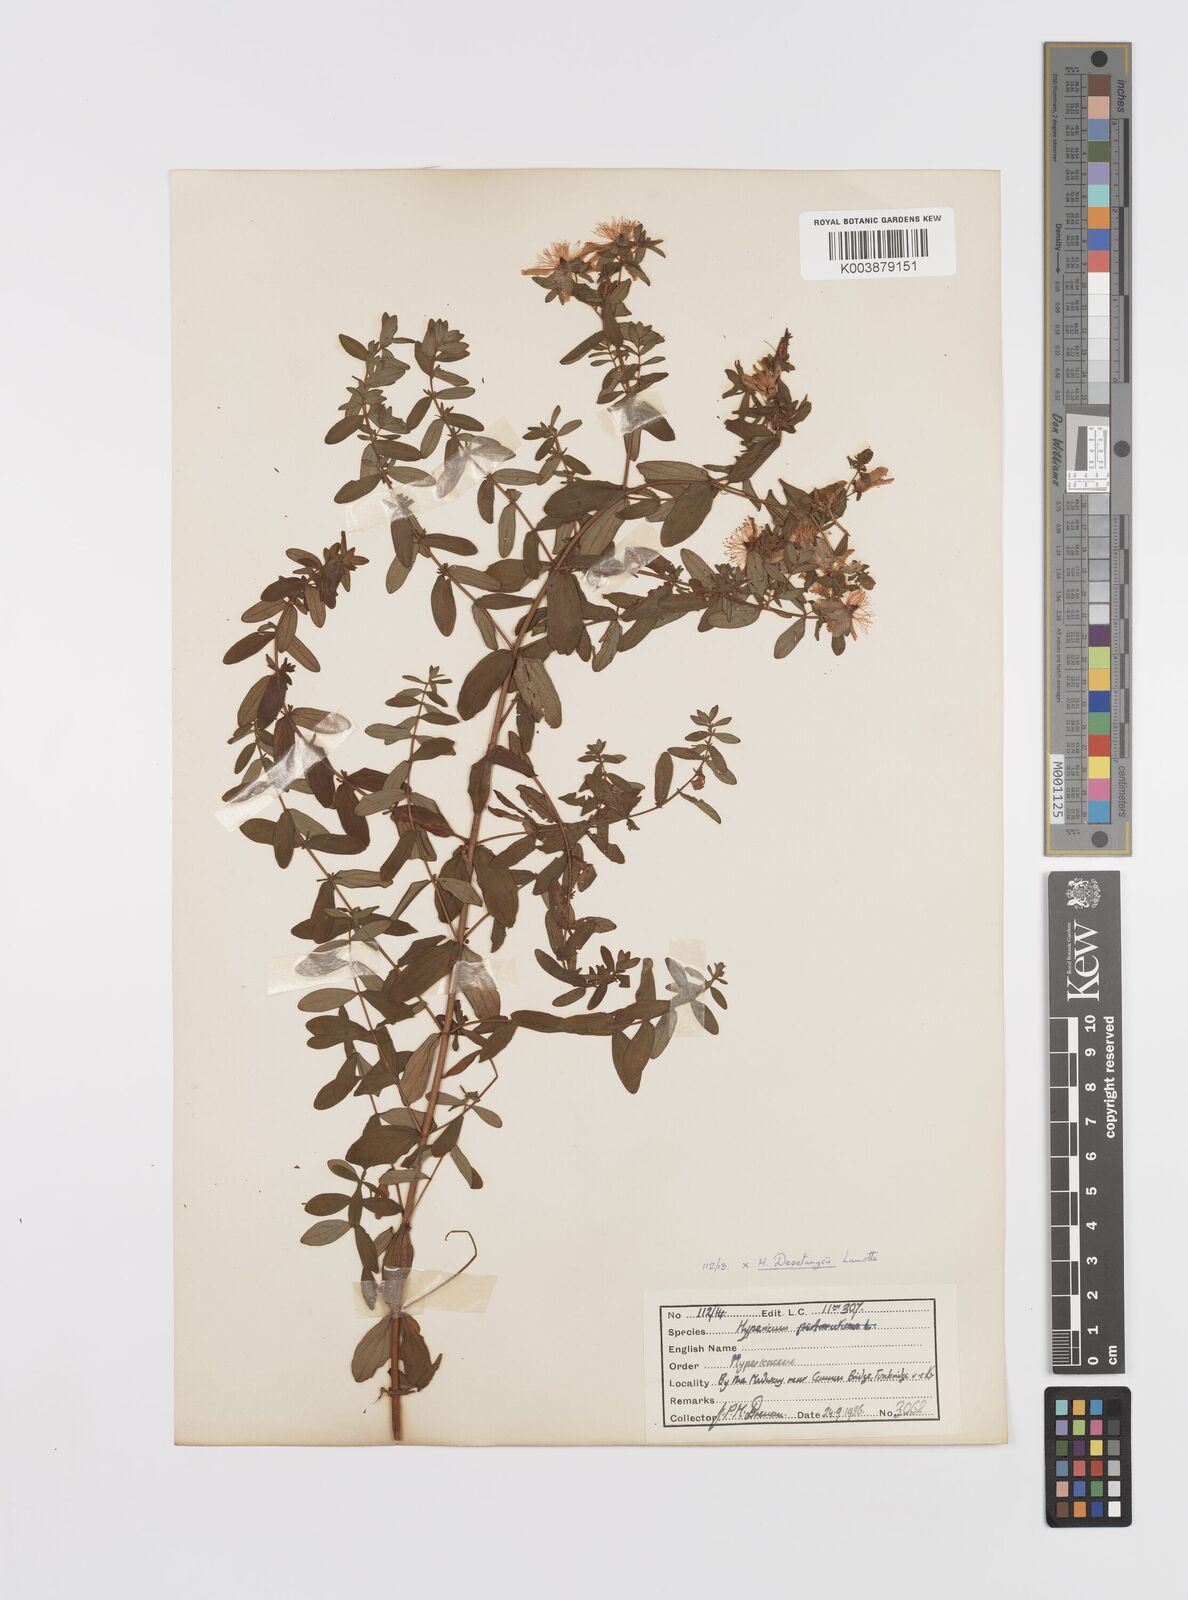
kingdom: Plantae
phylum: Tracheophyta
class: Magnoliopsida
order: Malpighiales
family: Hypericaceae
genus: Hypericum
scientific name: Hypericum desetangsii
